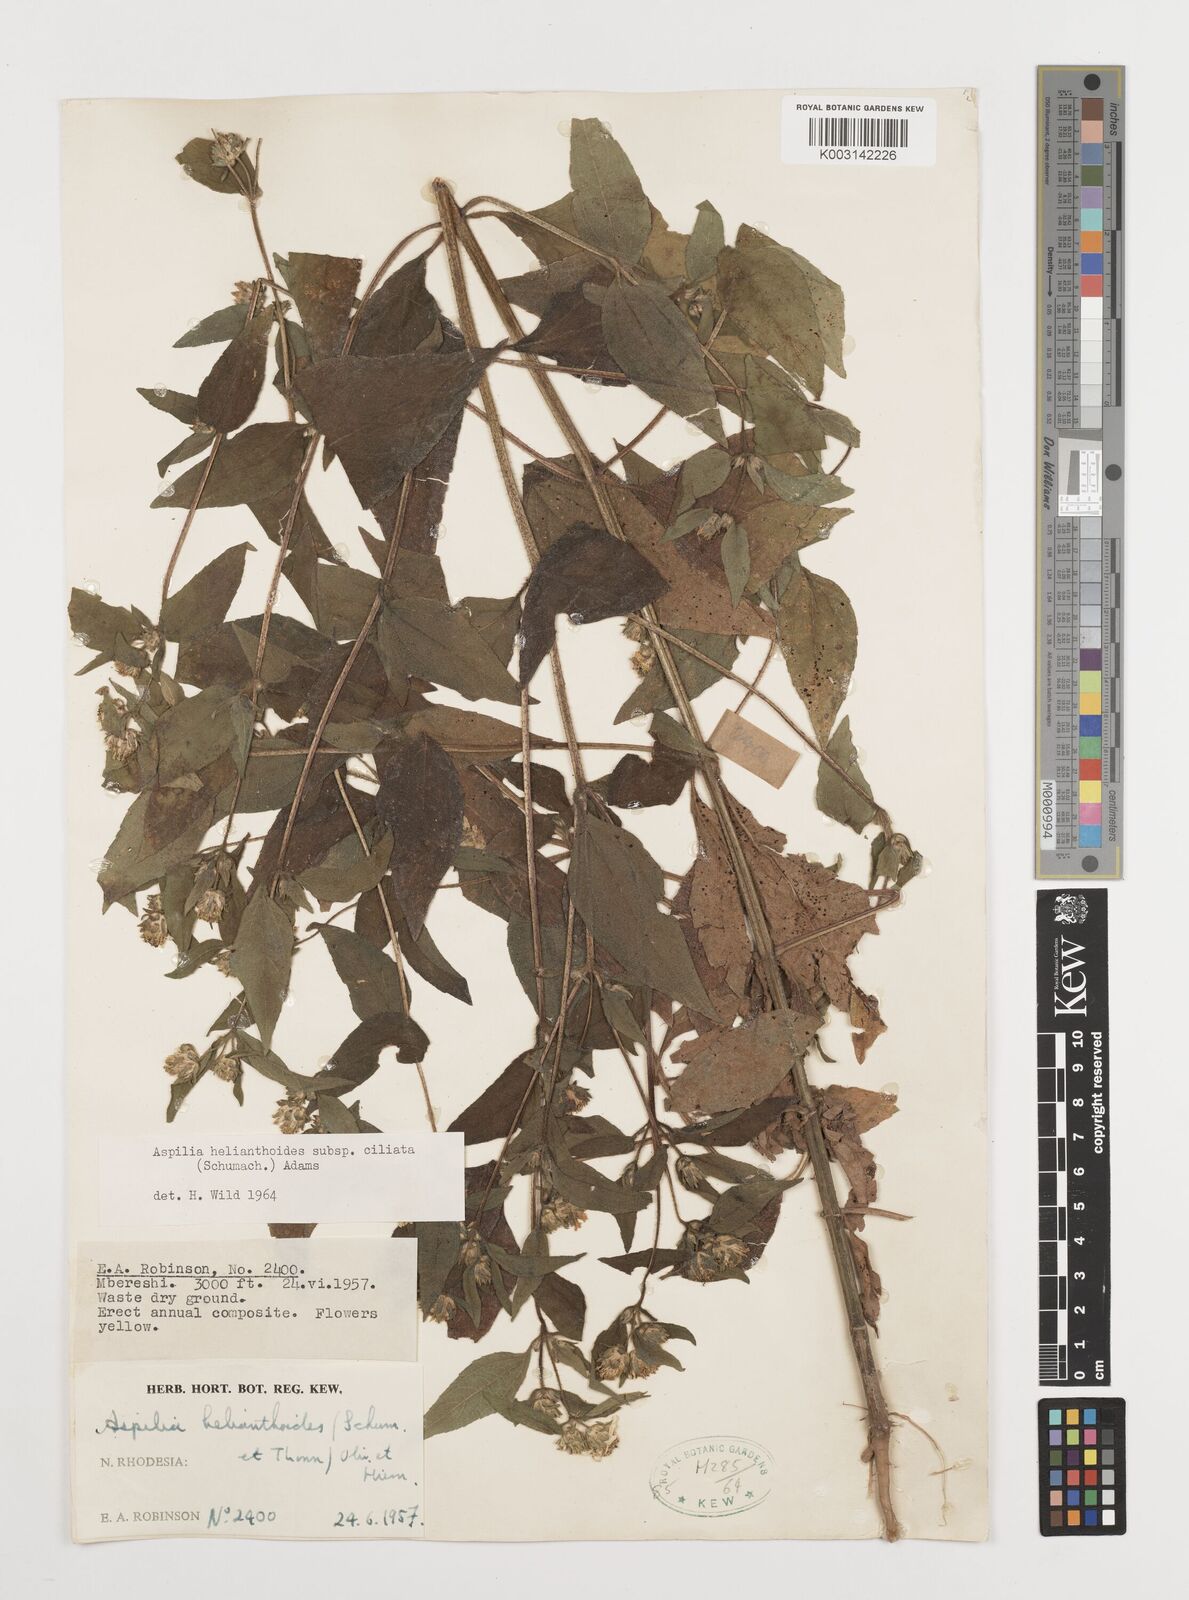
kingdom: Plantae
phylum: Tracheophyta
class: Magnoliopsida
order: Asterales
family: Asteraceae
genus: Aspilia
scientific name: Aspilia ciliata
